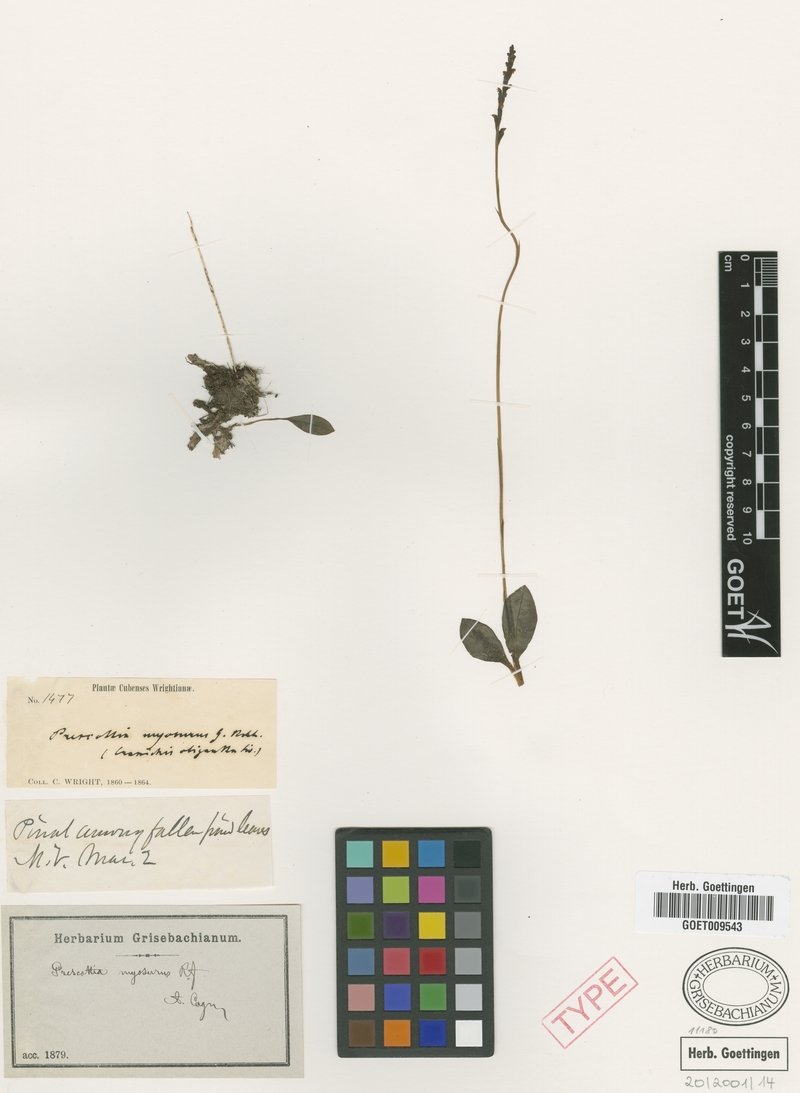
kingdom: Plantae
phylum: Tracheophyta
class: Liliopsida
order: Asparagales
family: Orchidaceae
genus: Prescottia
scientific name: Prescottia oligantha
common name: Small prescott orchid
